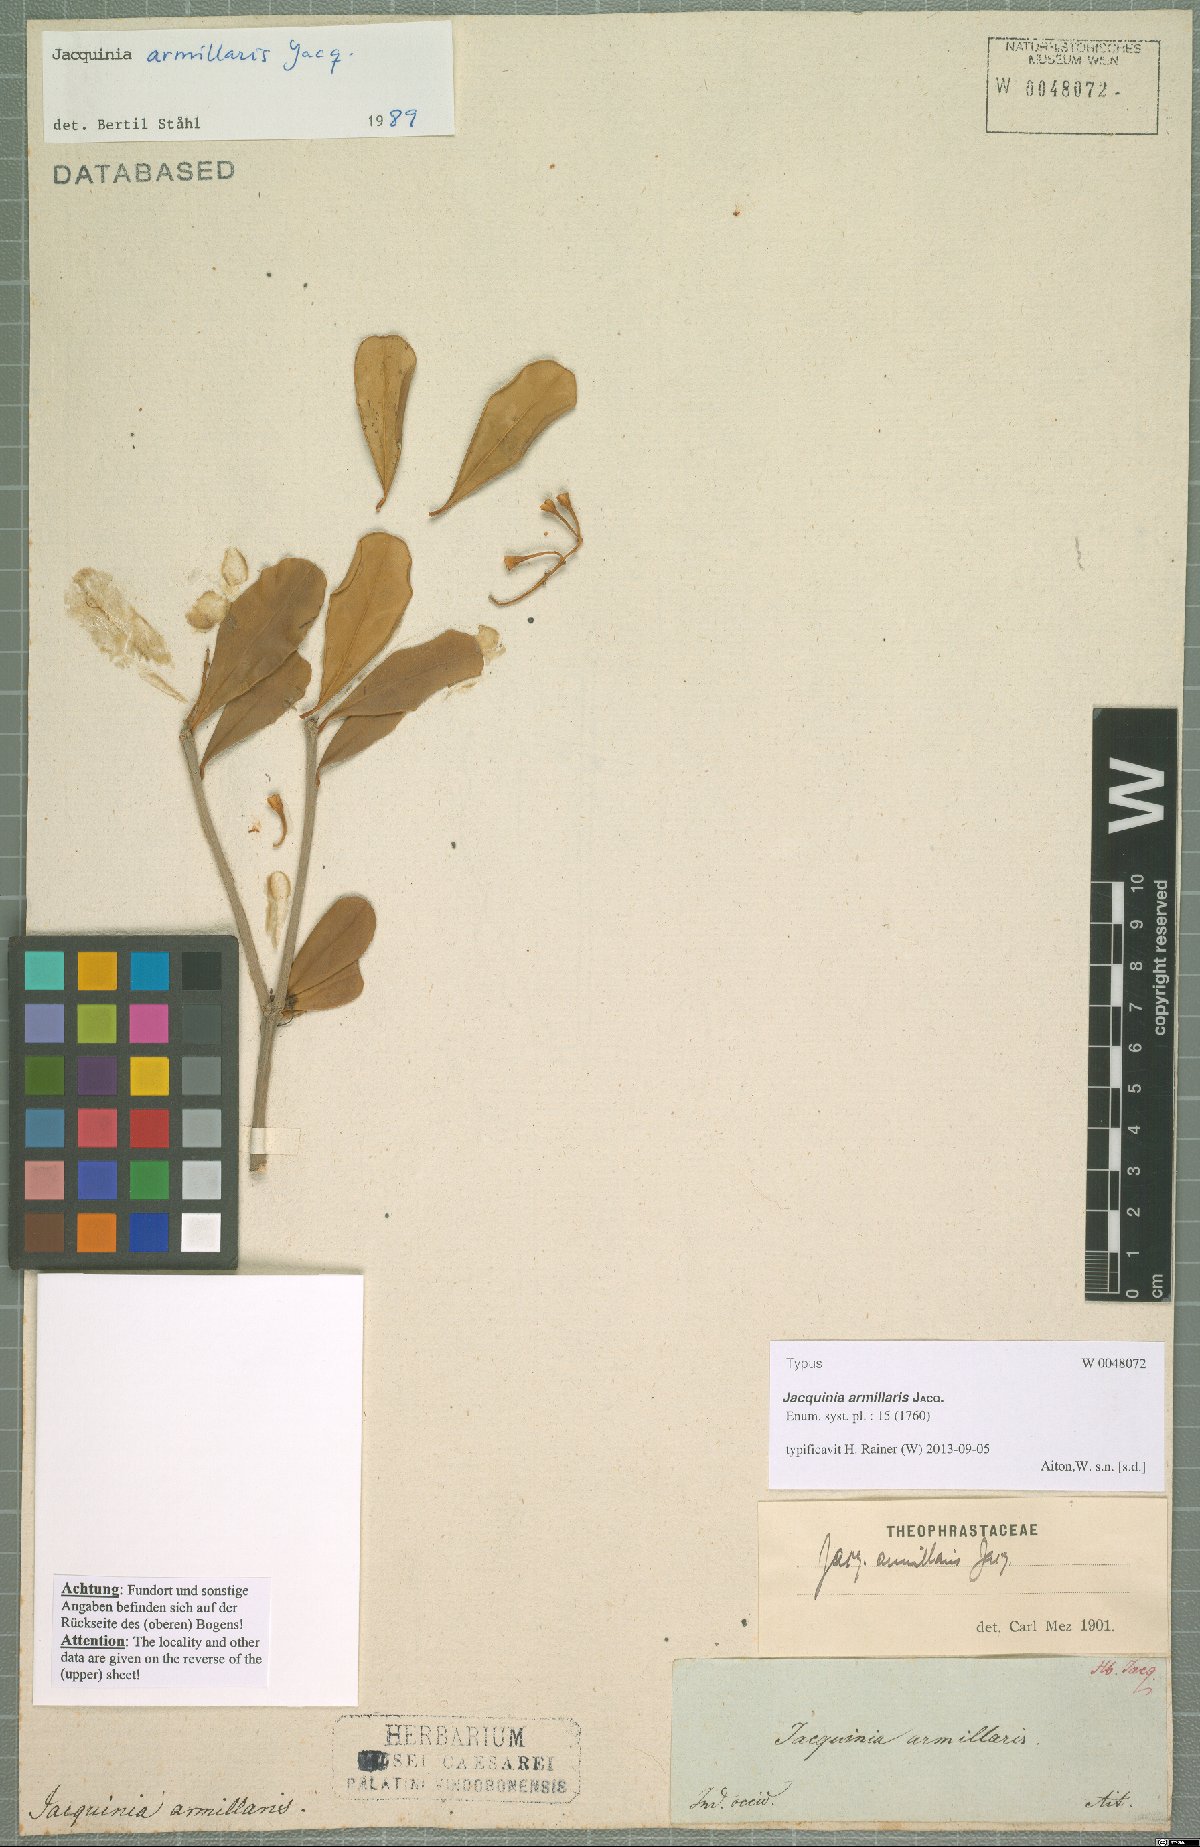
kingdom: Plantae
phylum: Tracheophyta
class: Magnoliopsida
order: Ericales
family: Primulaceae
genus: Jacquinia
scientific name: Jacquinia armillaris
